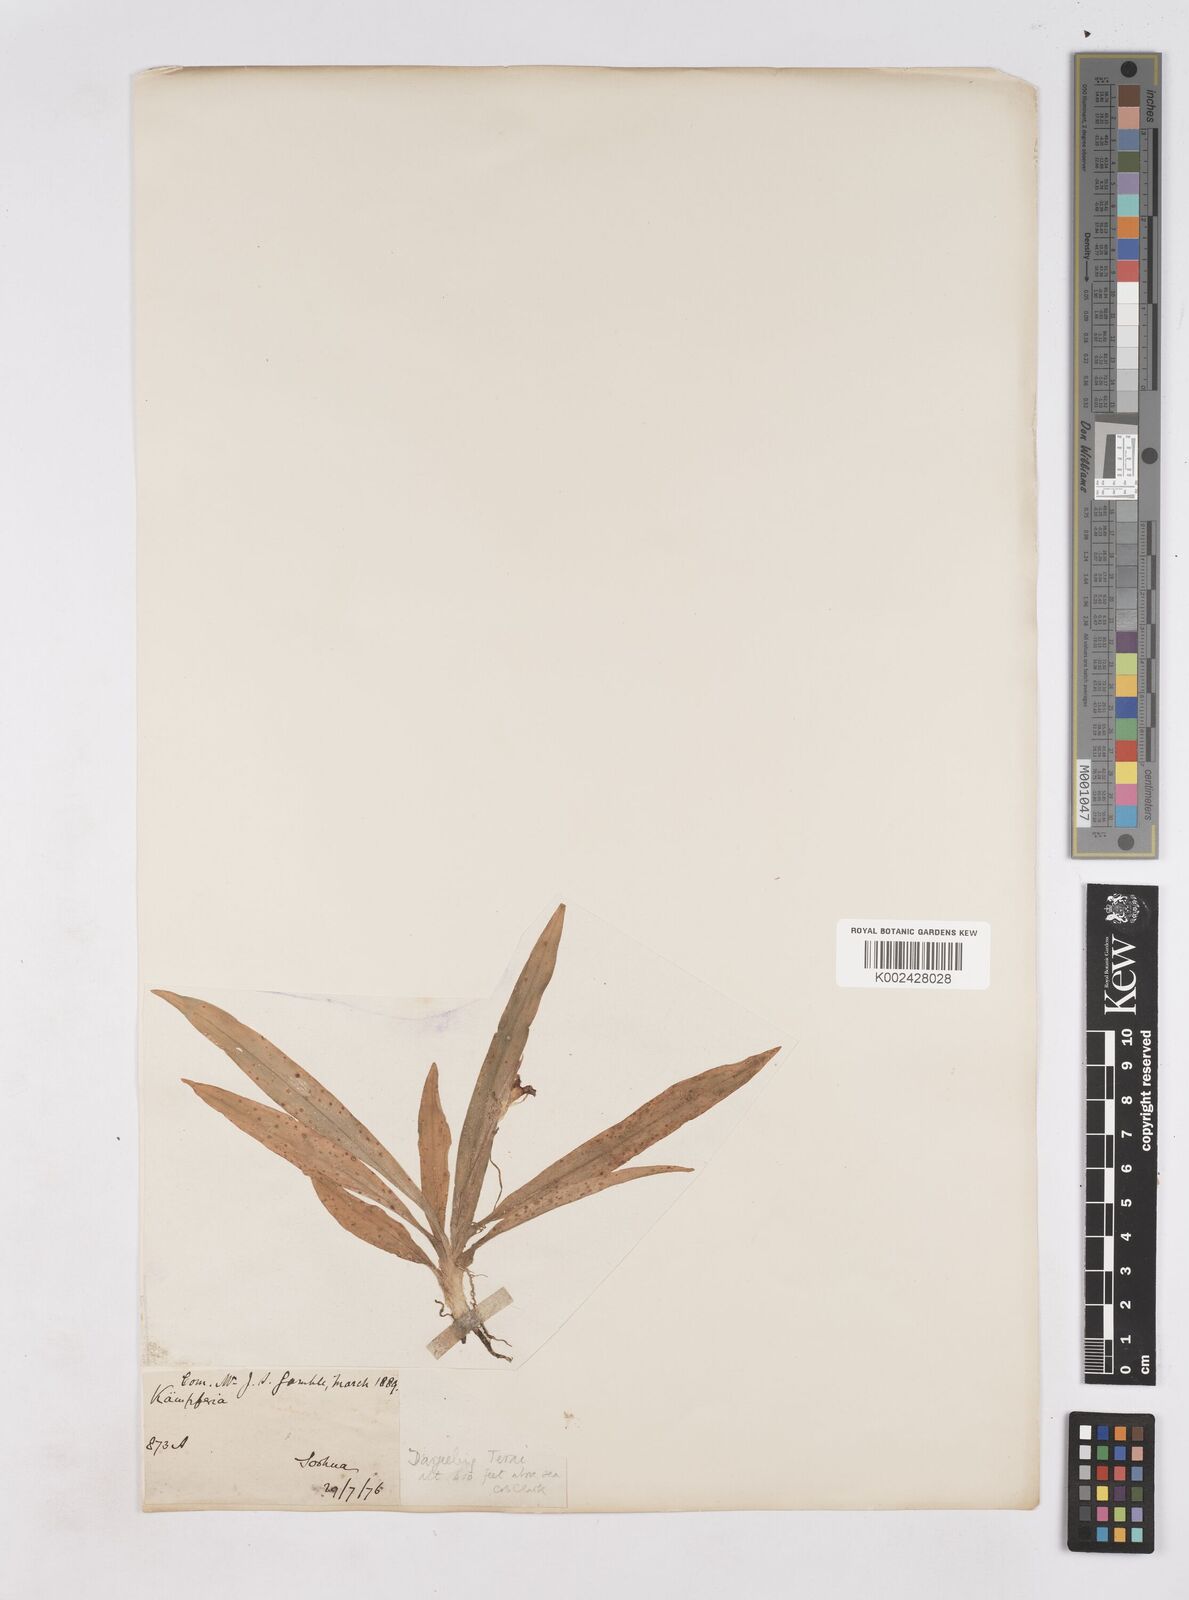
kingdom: Plantae
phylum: Tracheophyta
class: Liliopsida
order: Zingiberales
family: Zingiberaceae
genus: Kaempferia
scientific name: Kaempferia angustifolia
